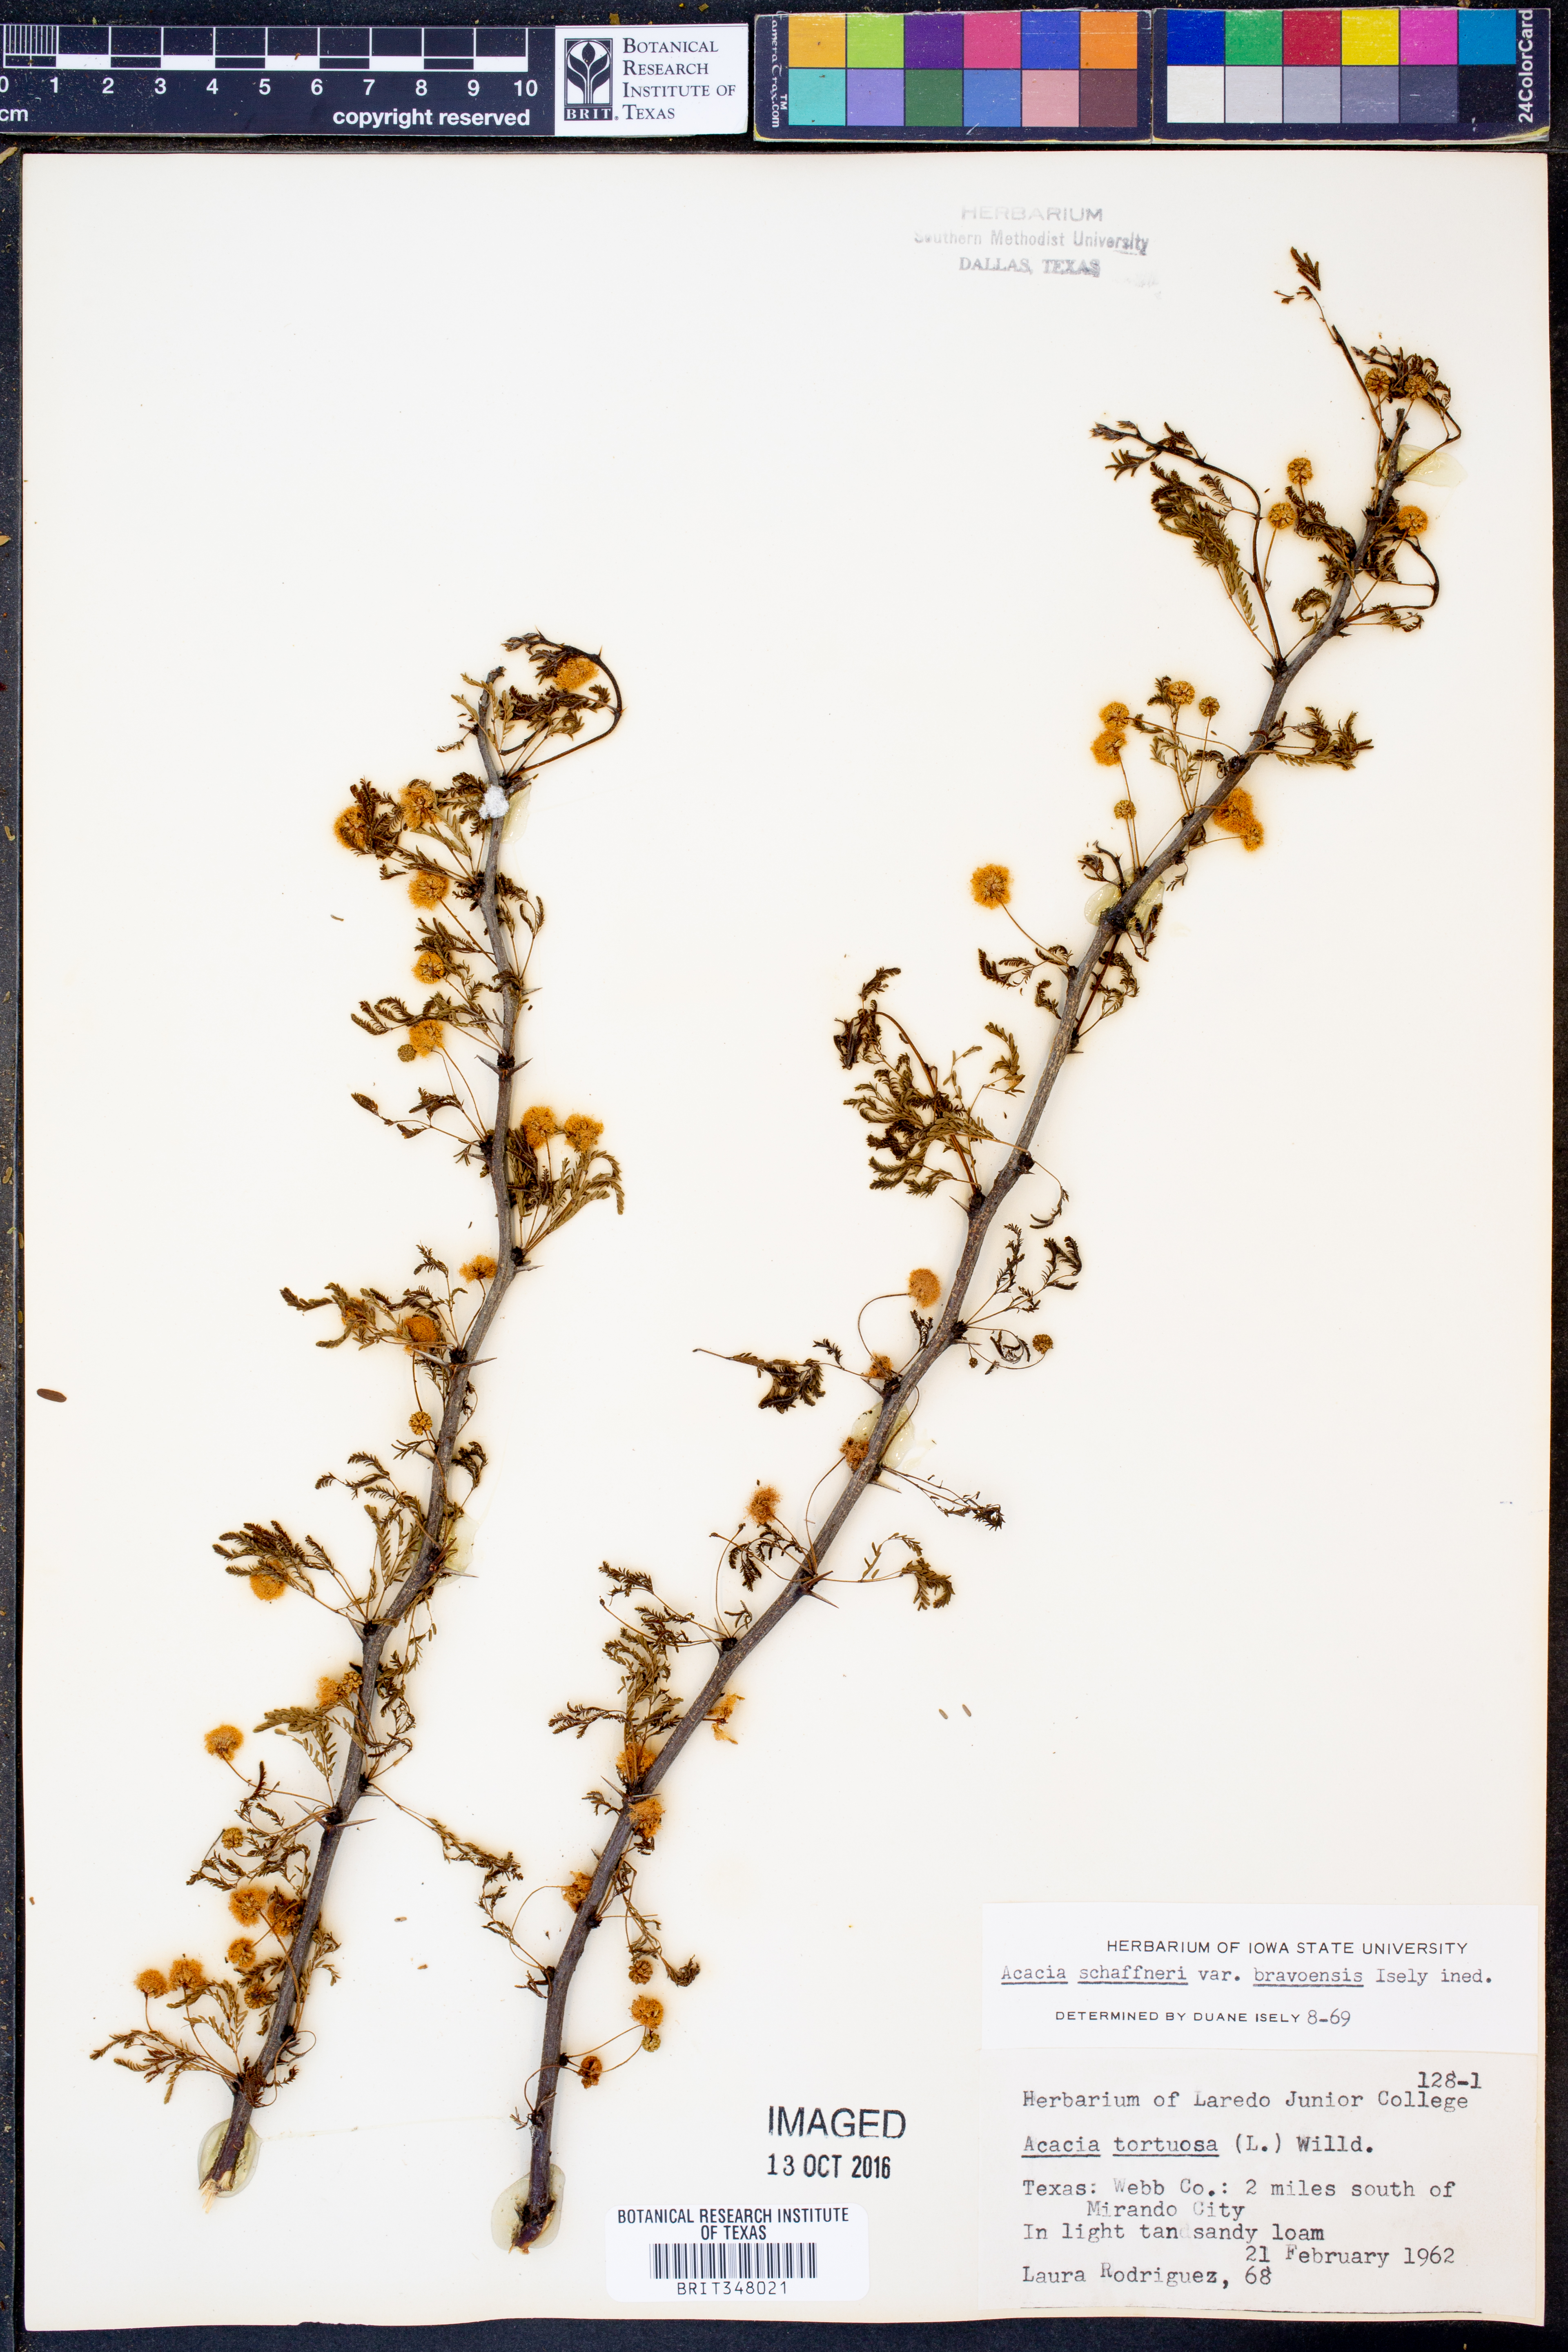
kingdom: Plantae
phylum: Tracheophyta
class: Magnoliopsida
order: Fabales
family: Fabaceae
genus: Vachellia
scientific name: Vachellia bravoensis
